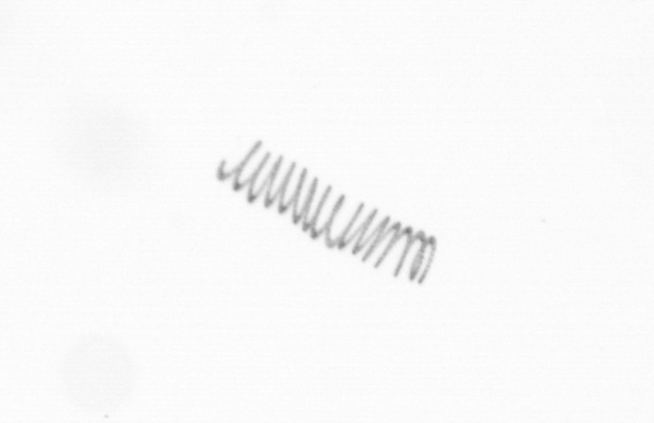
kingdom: Chromista
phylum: Ochrophyta
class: Bacillariophyceae
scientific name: Bacillariophyceae
